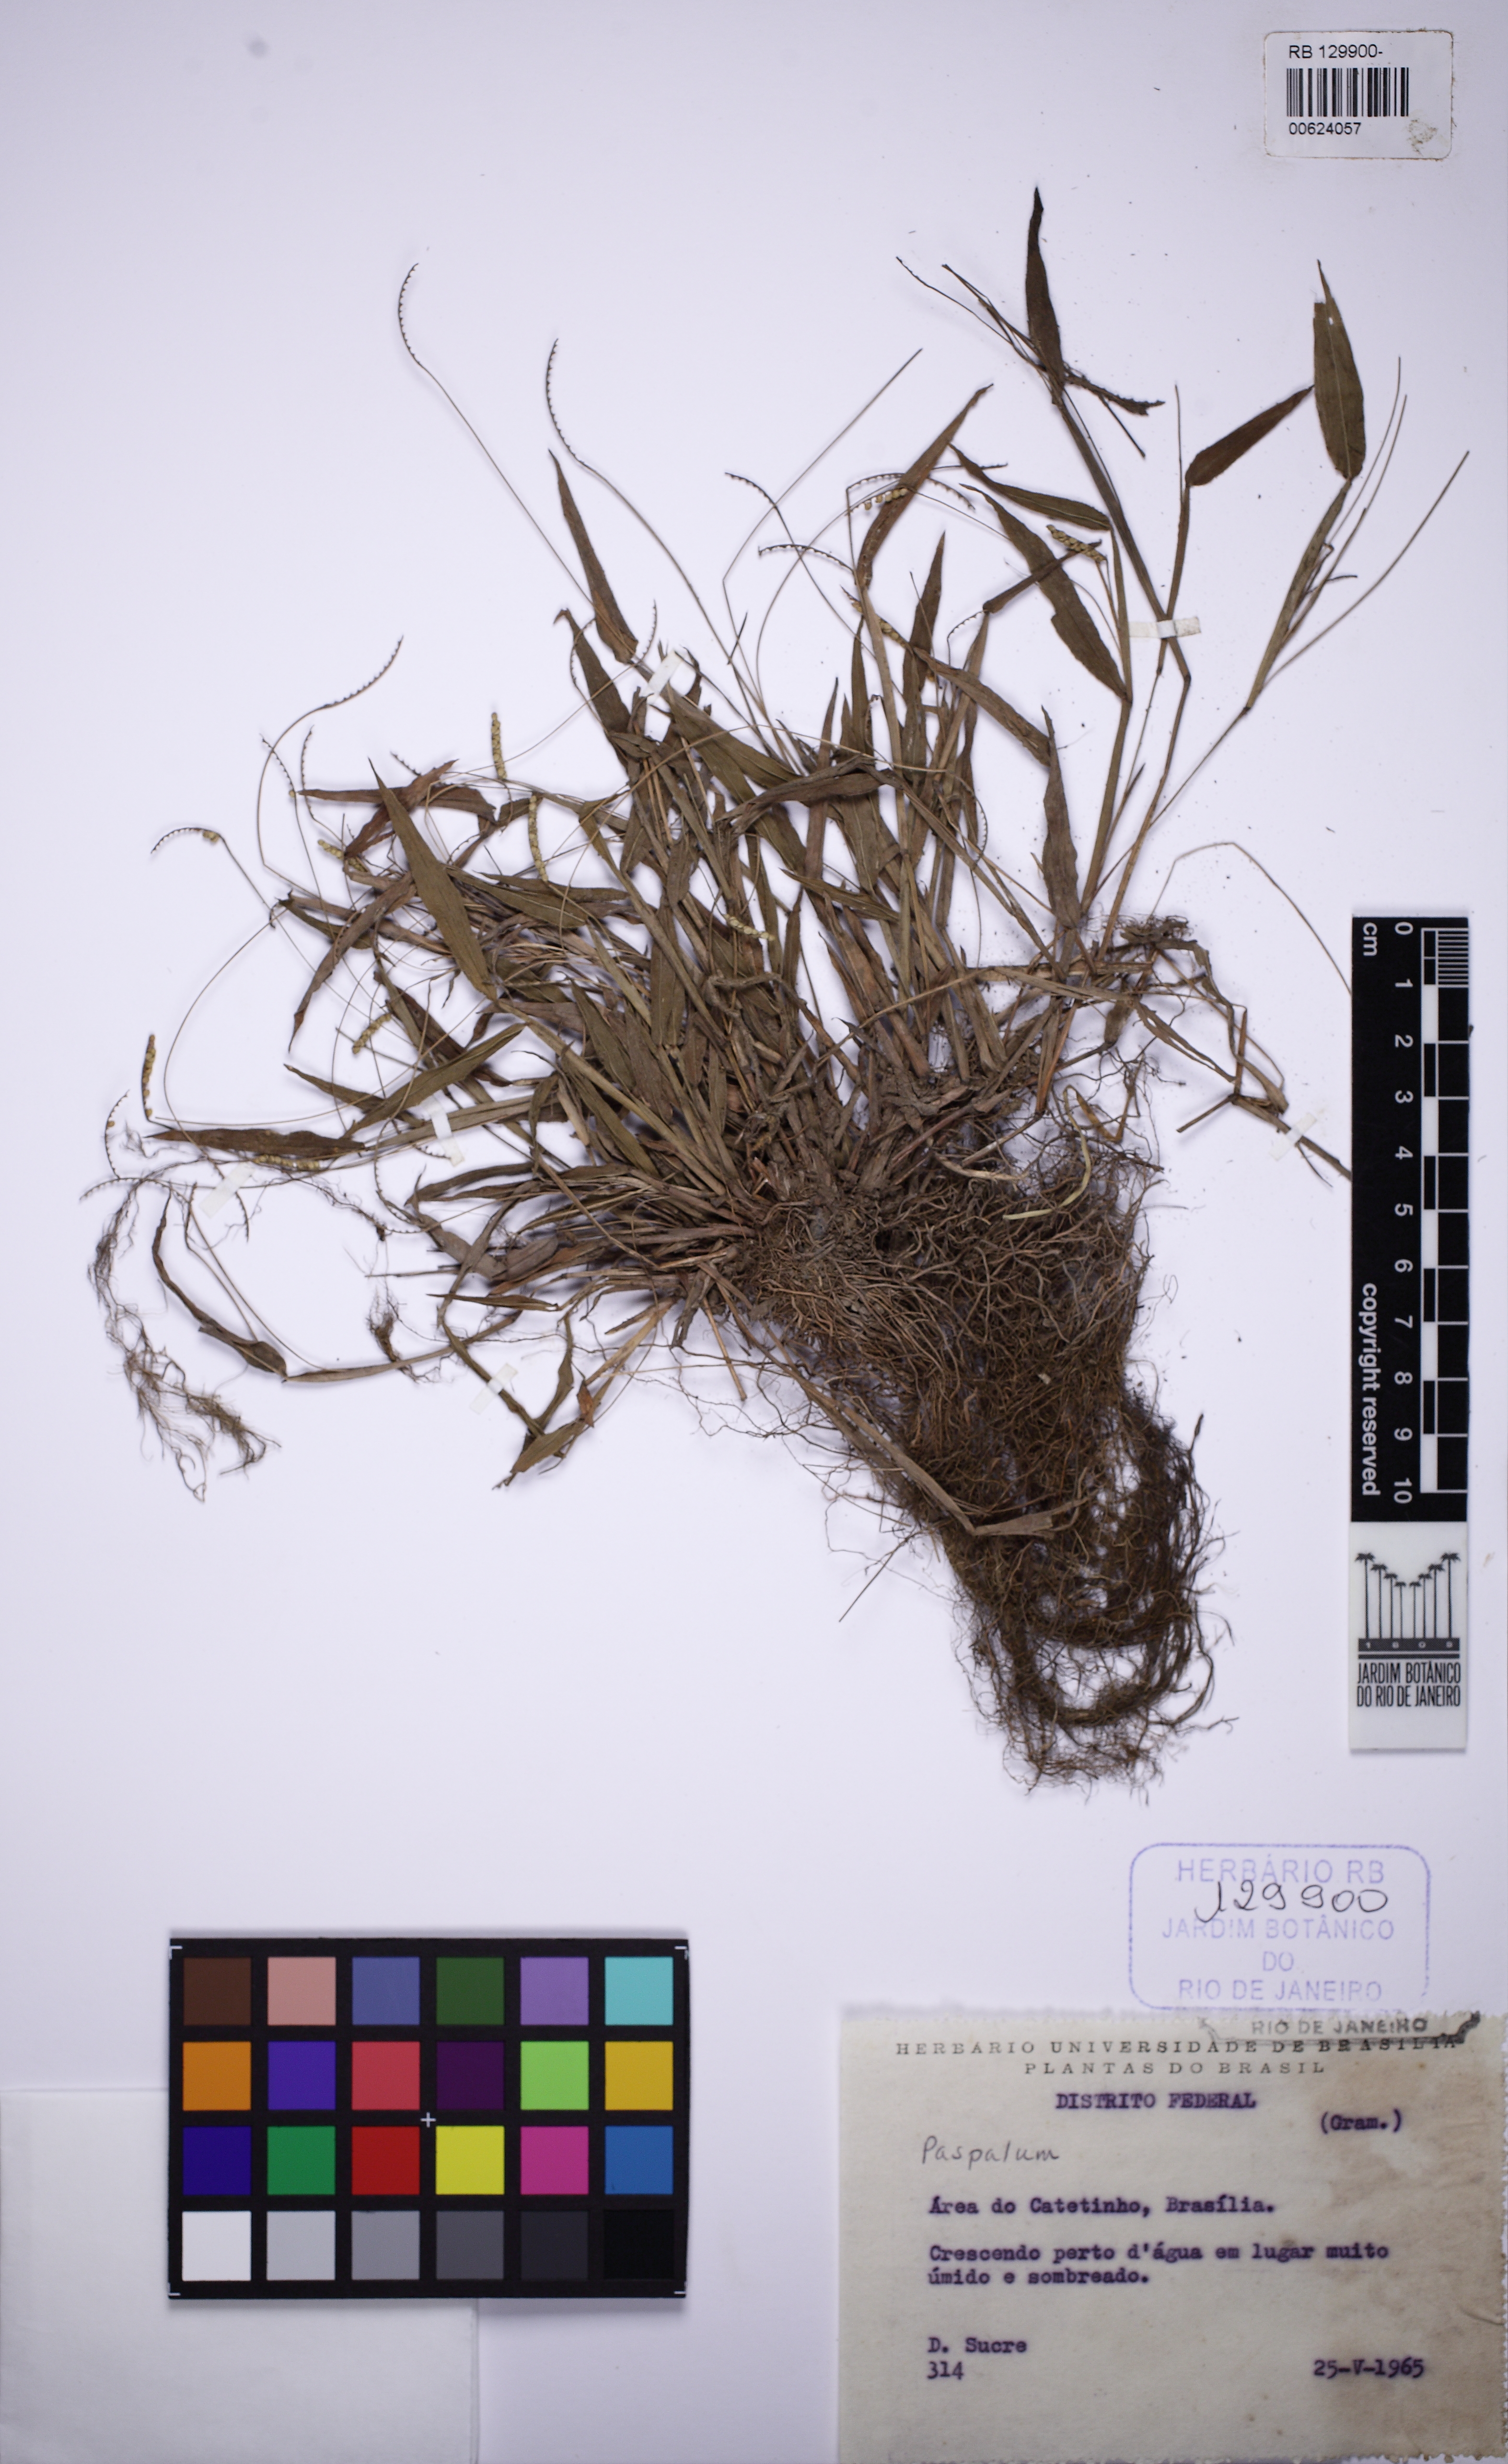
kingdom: Plantae
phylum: Tracheophyta
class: Liliopsida
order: Poales
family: Poaceae
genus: Paspalum
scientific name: Paspalum
